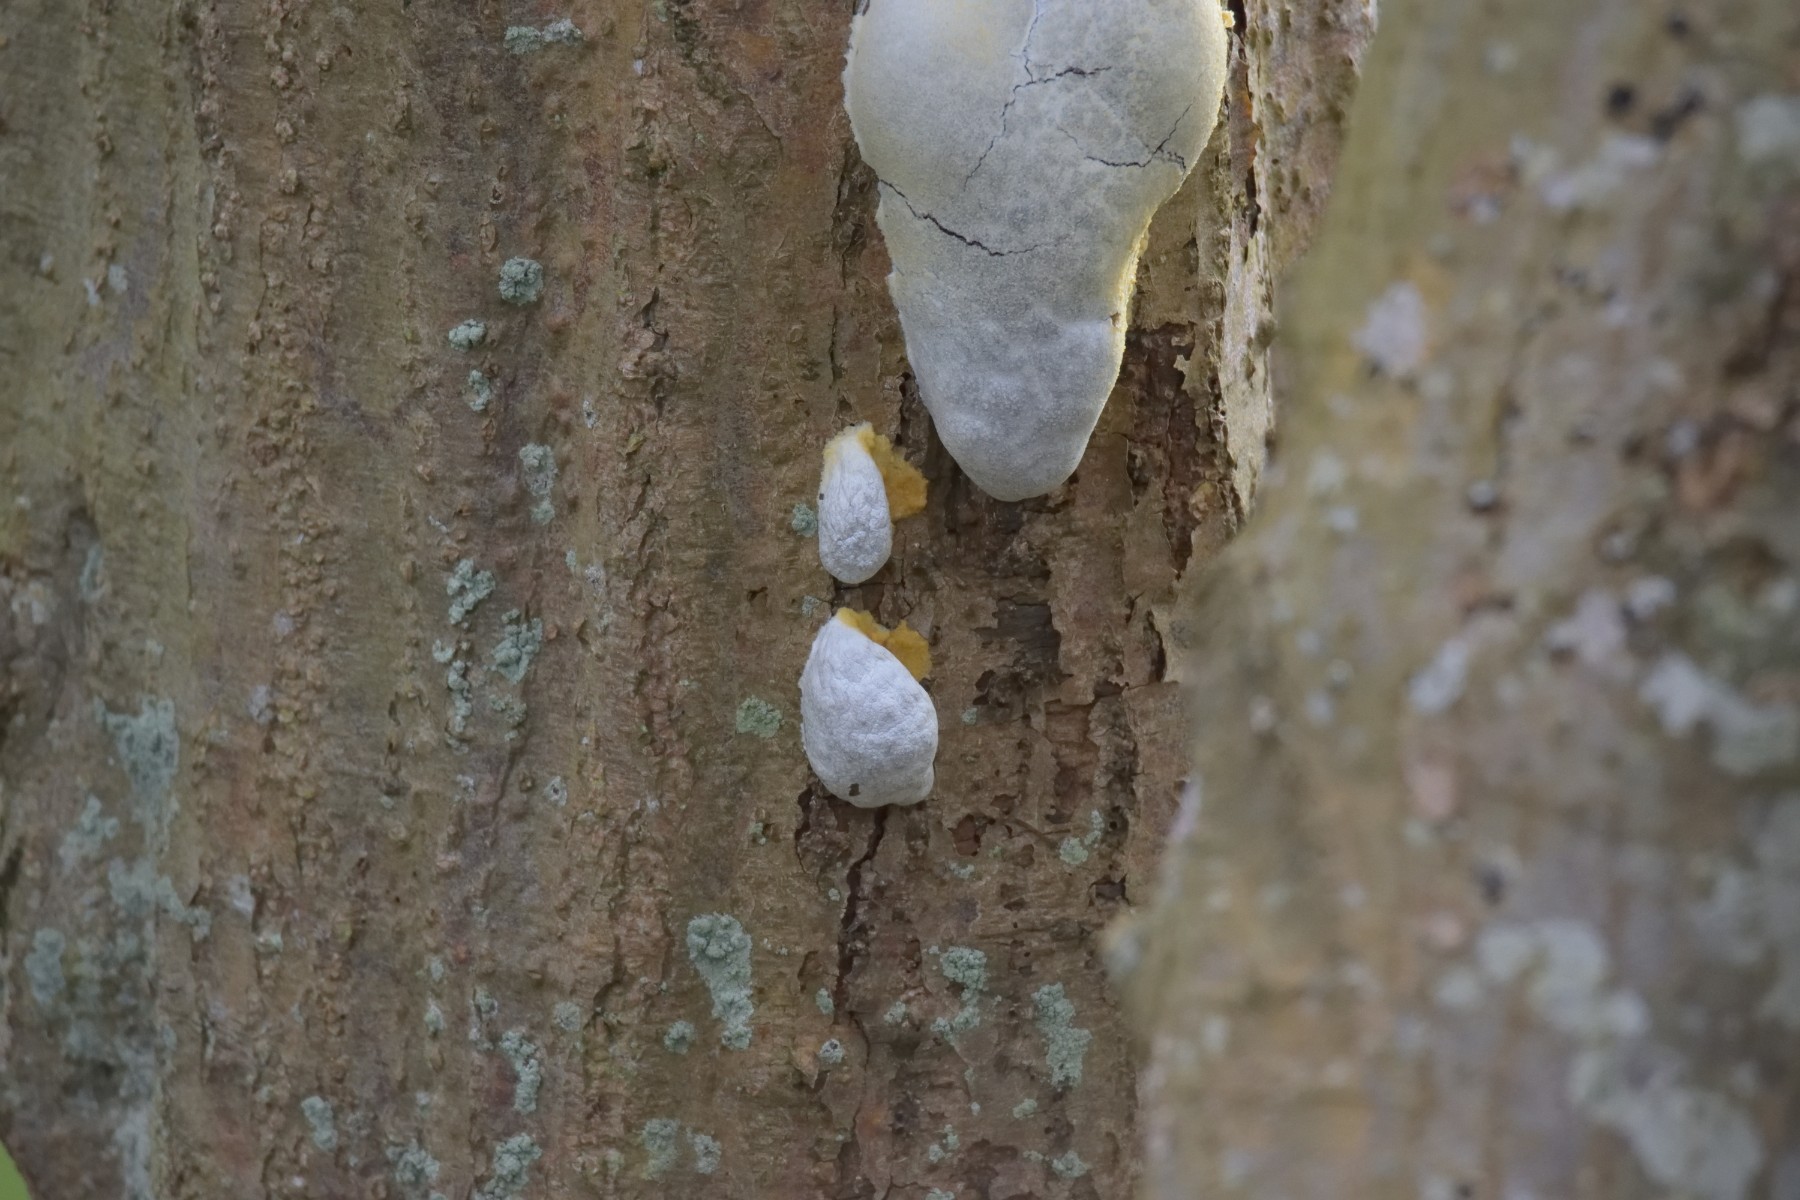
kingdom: Protozoa
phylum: Mycetozoa
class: Myxomycetes
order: Cribrariales
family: Tubiferaceae
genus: Reticularia
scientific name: Reticularia lycoperdon
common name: skinnende støvpude
